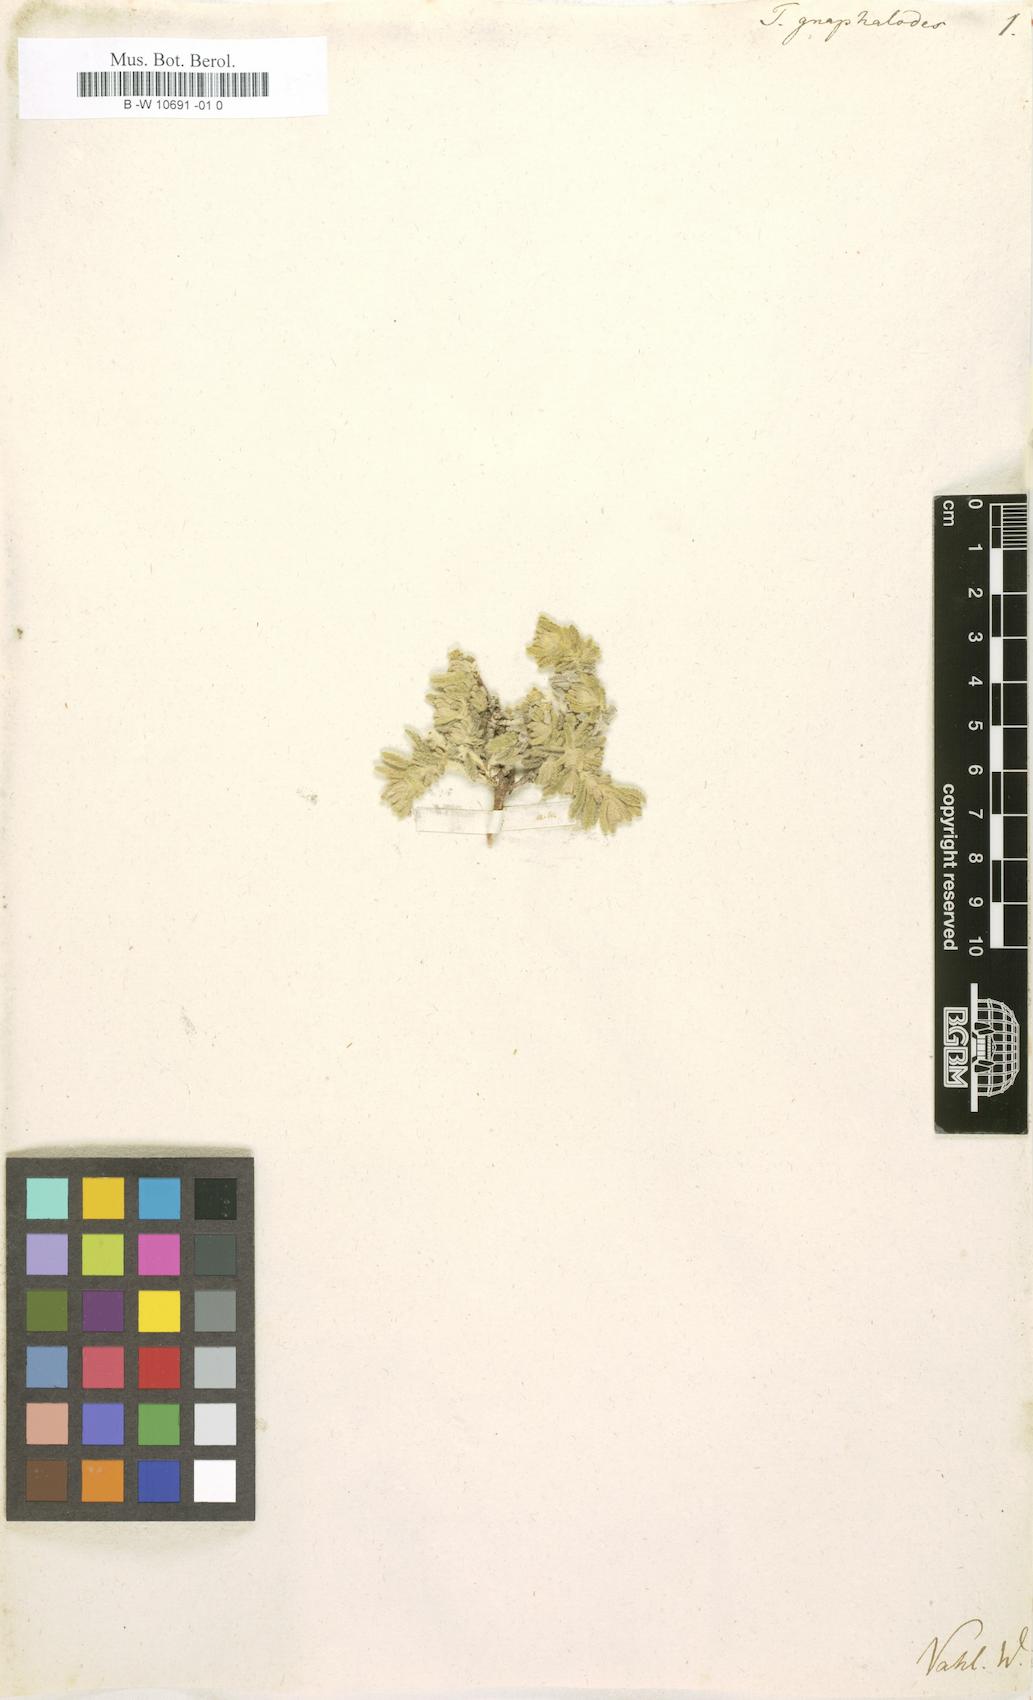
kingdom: Plantae
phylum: Tracheophyta
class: Magnoliopsida
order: Lamiales
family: Lamiaceae
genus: Teucrium
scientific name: Teucrium gnaphalodes
